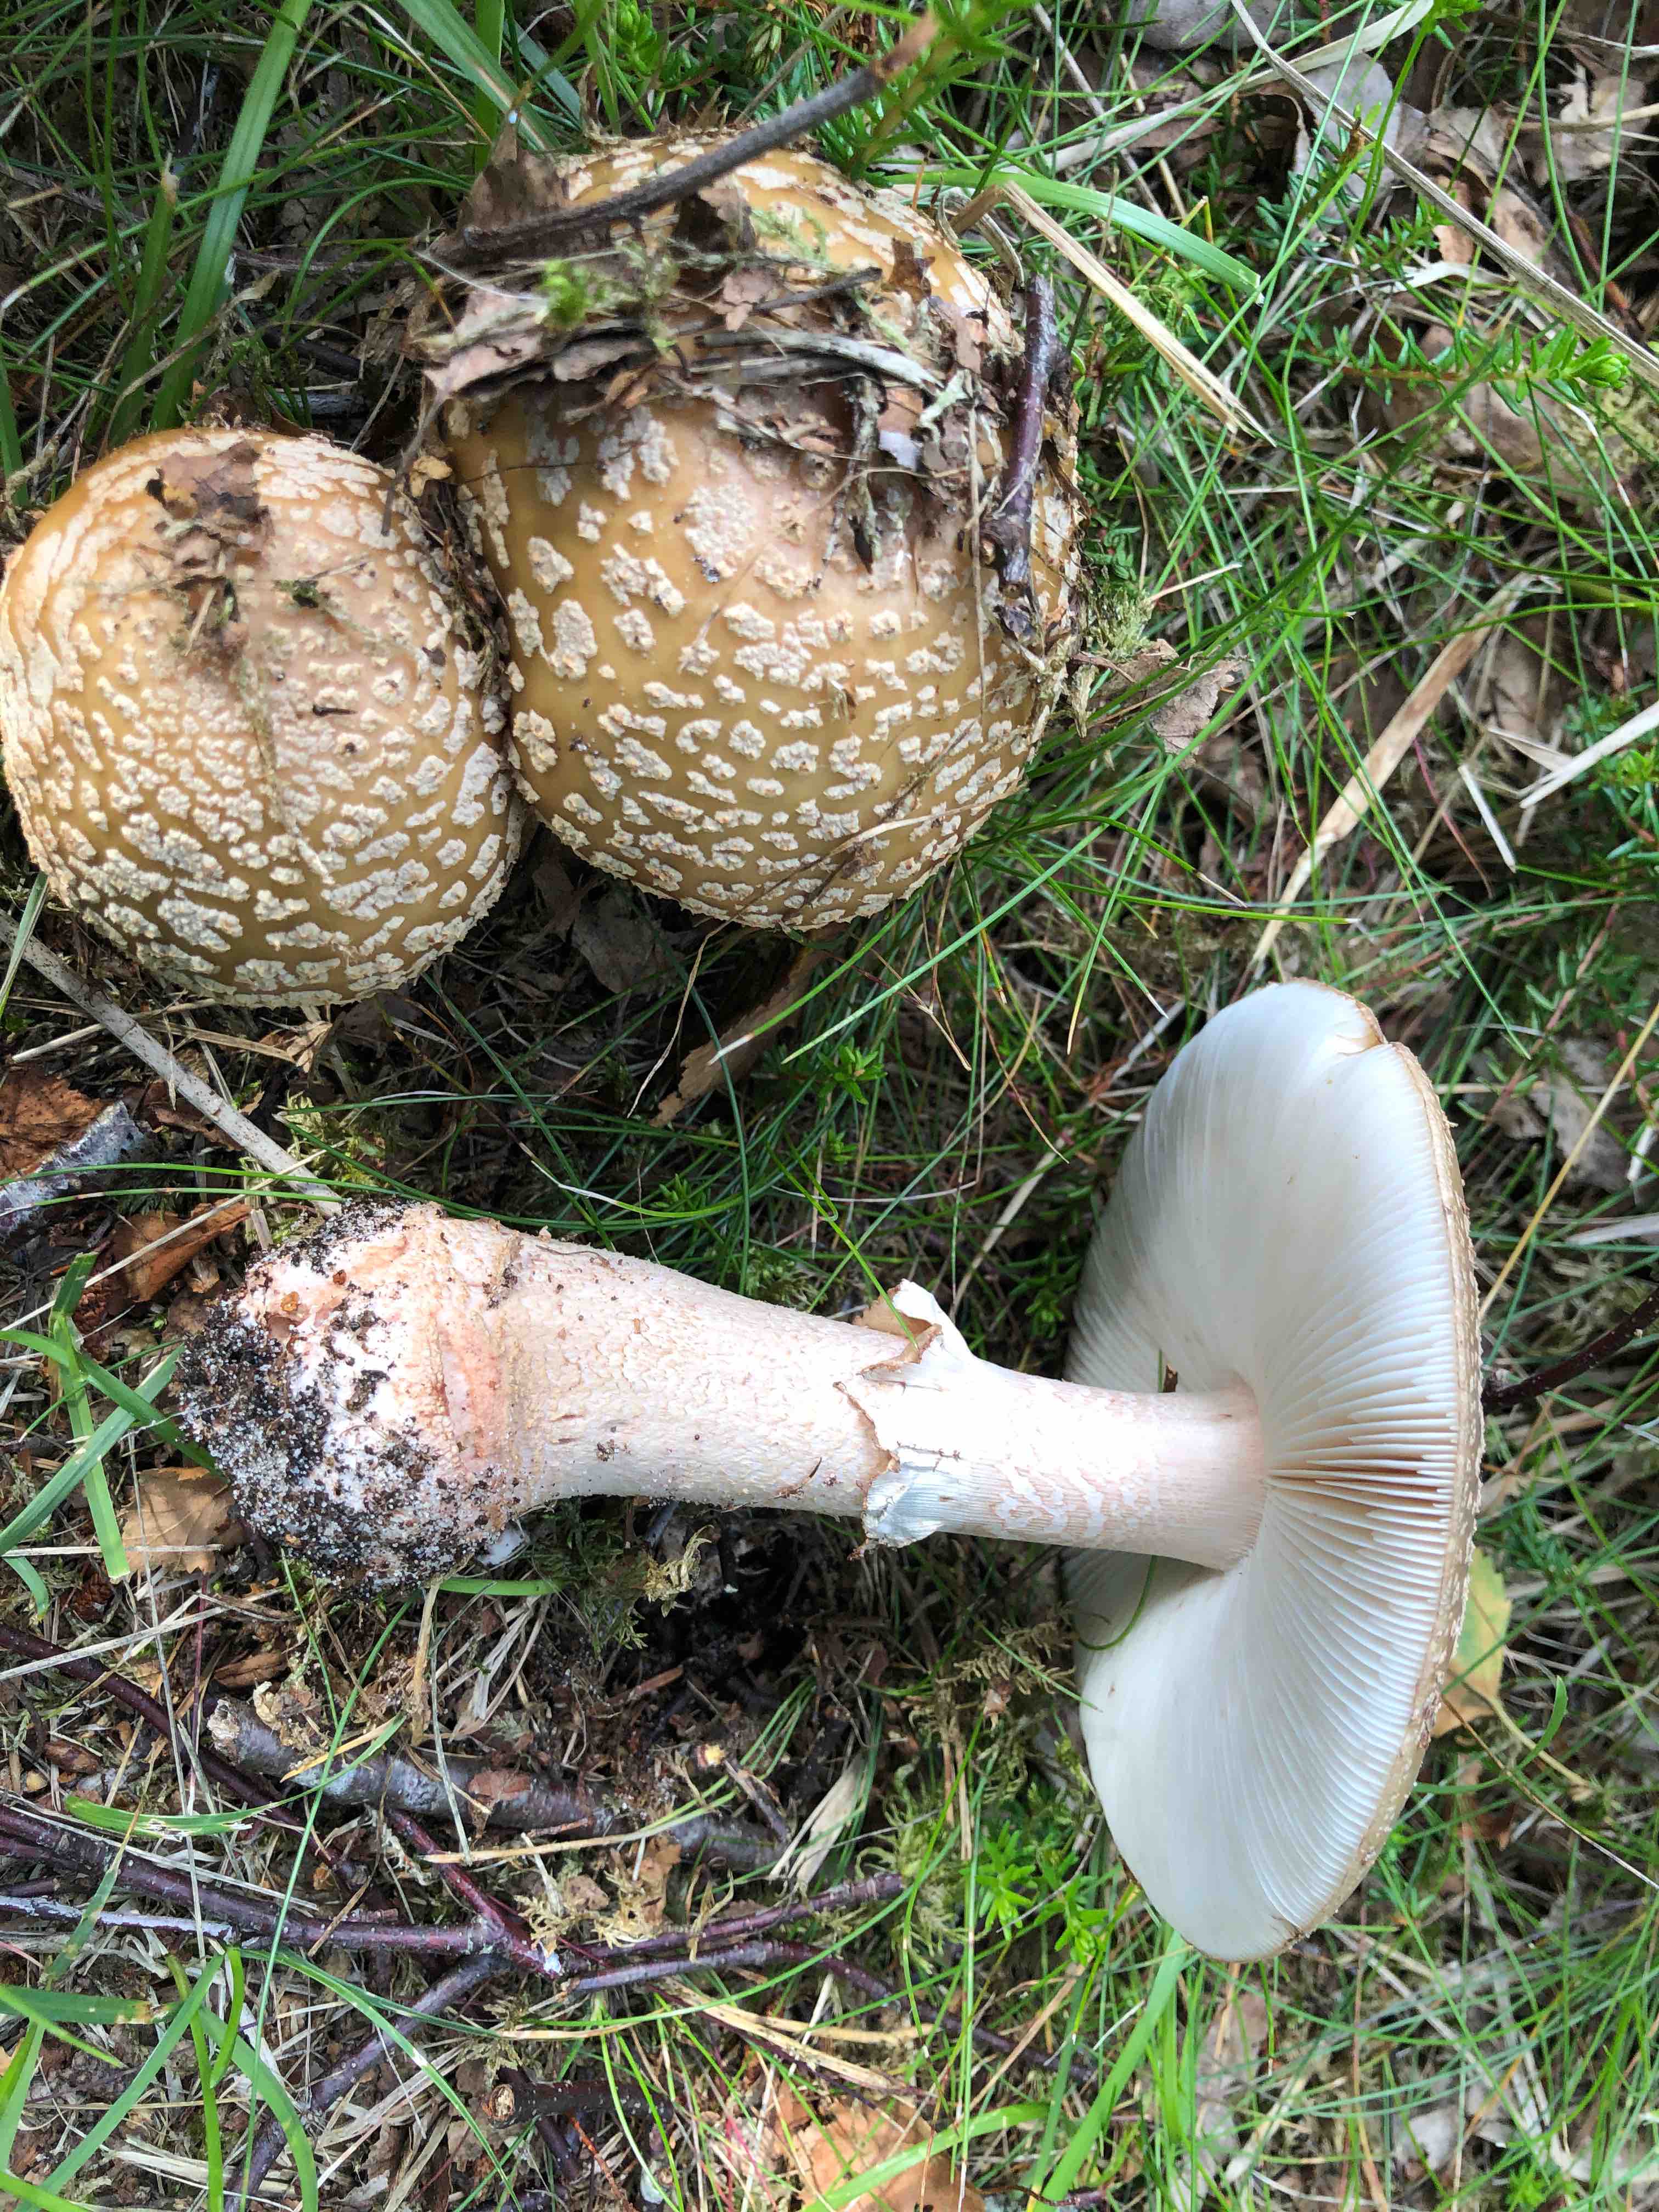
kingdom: Fungi
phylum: Basidiomycota
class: Agaricomycetes
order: Agaricales
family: Amanitaceae
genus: Amanita
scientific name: Amanita rubescens
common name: rødmende fluesvamp
